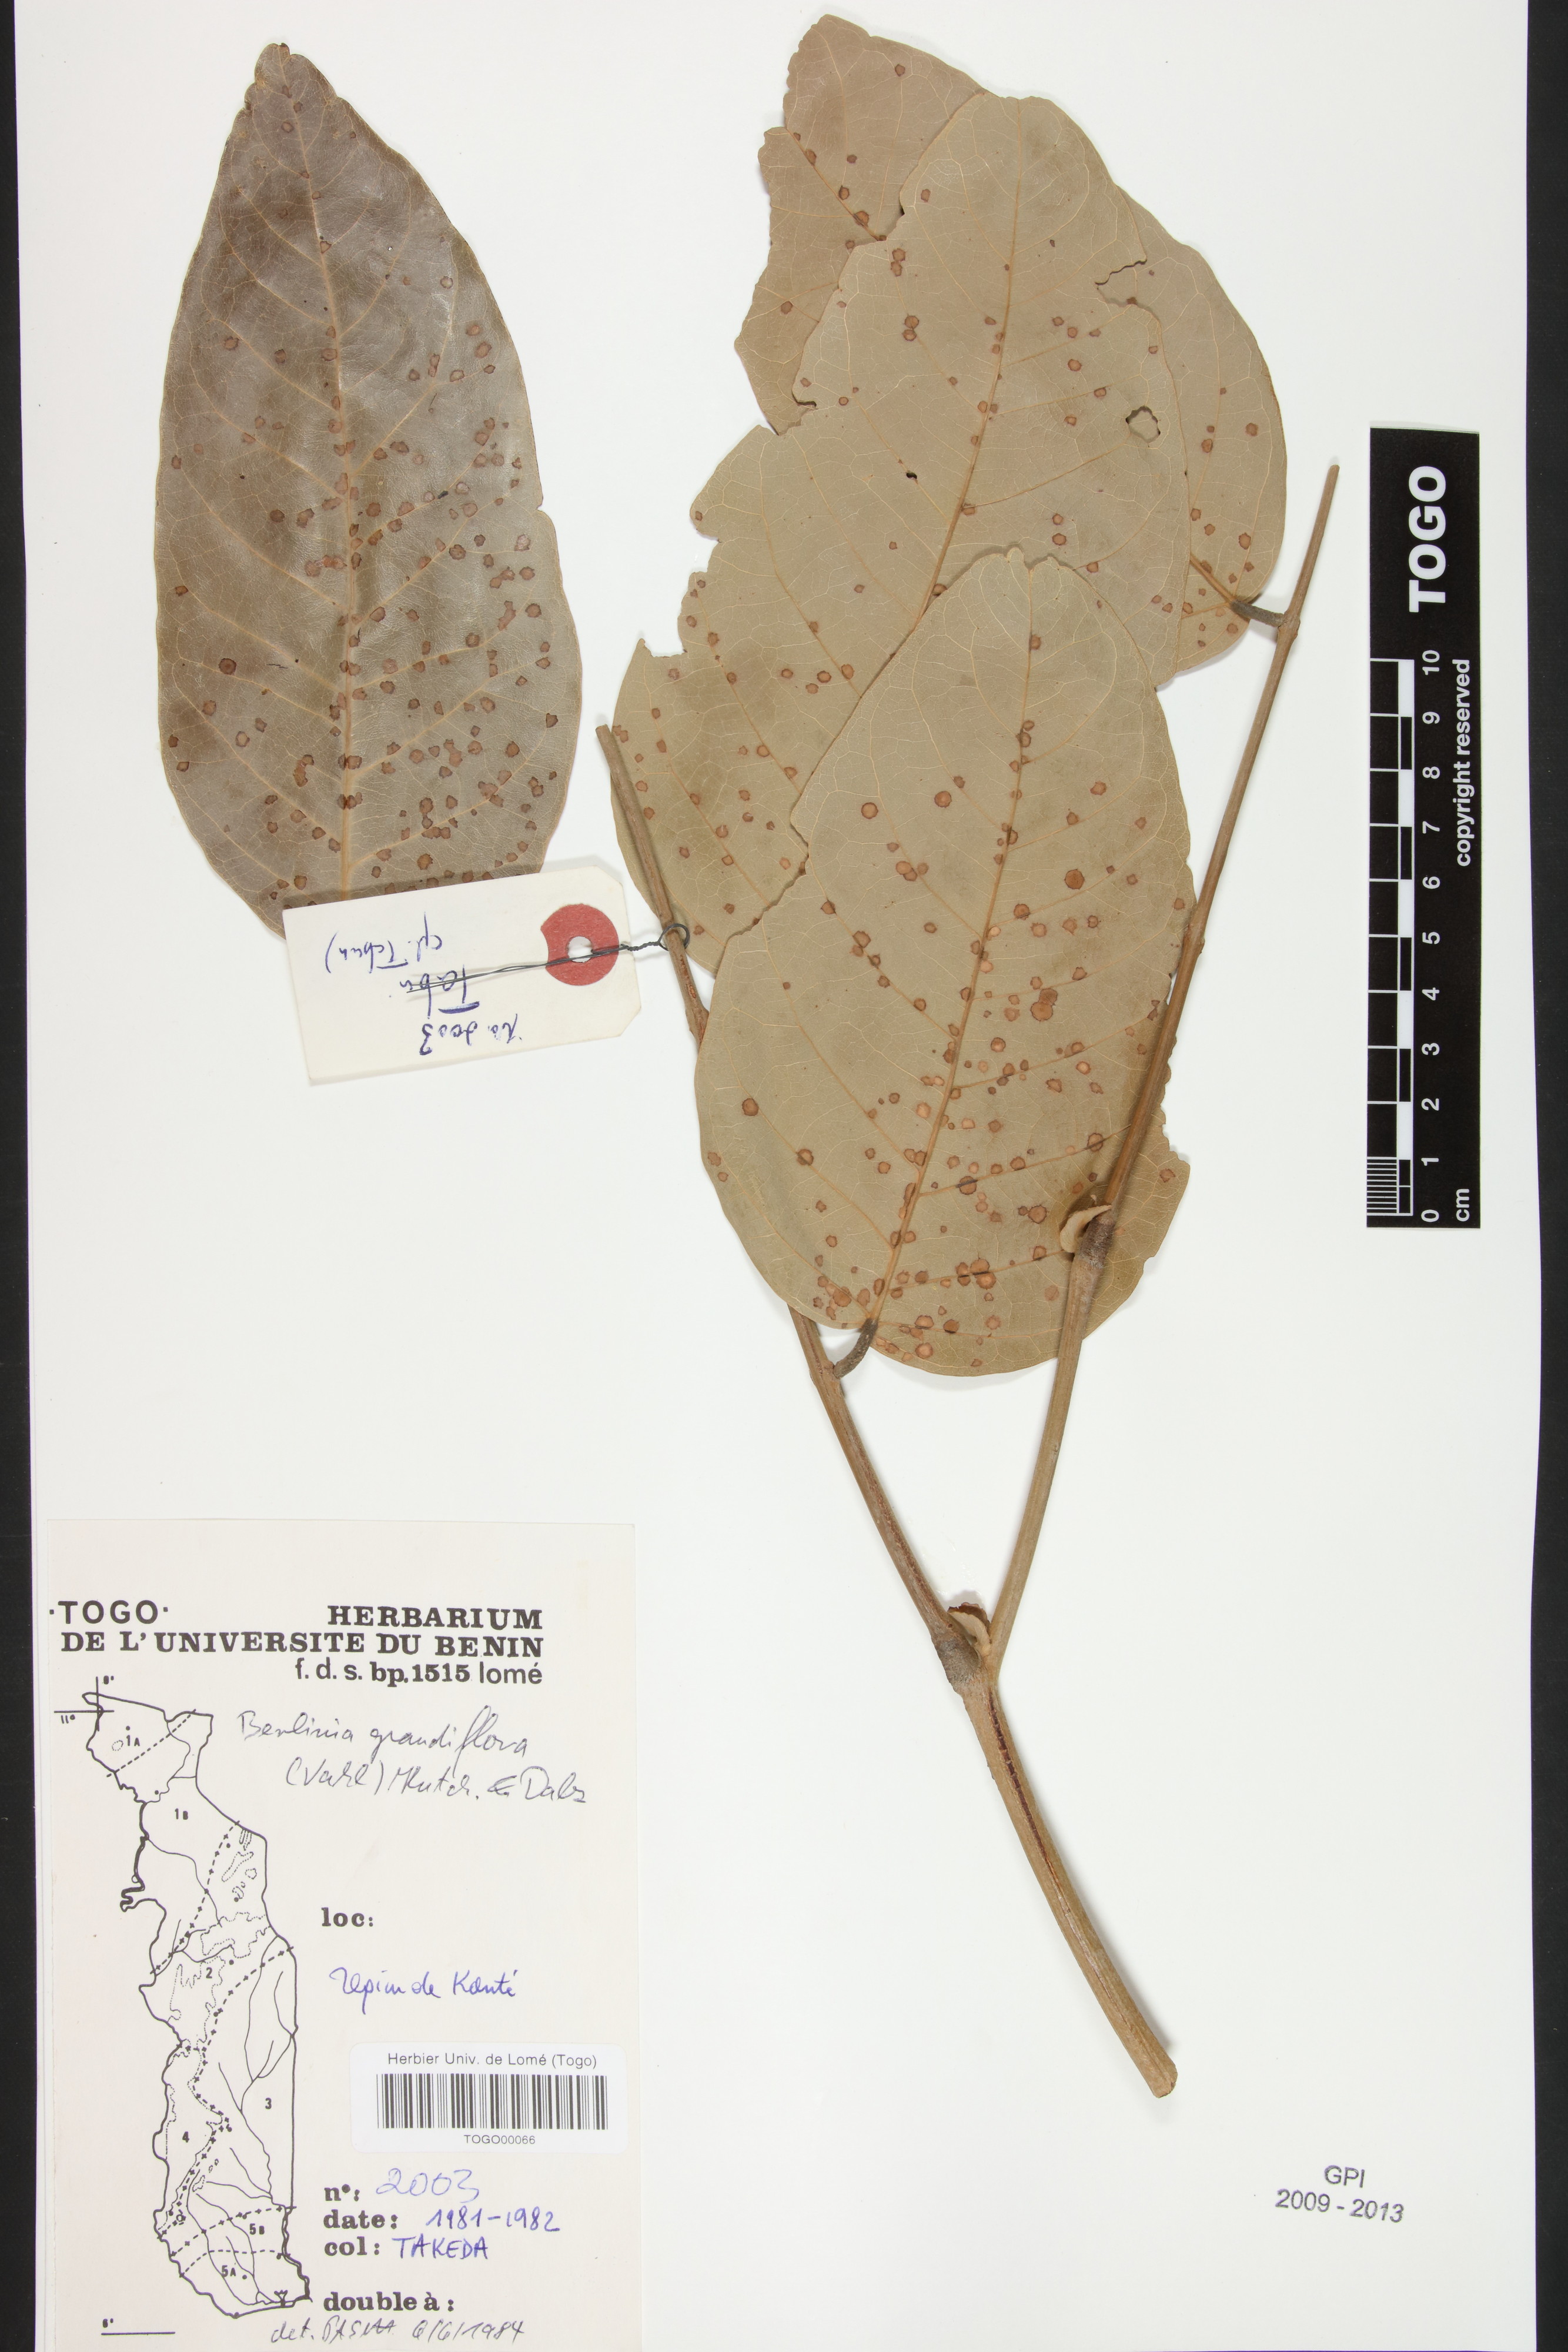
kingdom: Plantae
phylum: Tracheophyta
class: Magnoliopsida
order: Fabales
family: Fabaceae
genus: Berlinia
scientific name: Berlinia grandiflora
